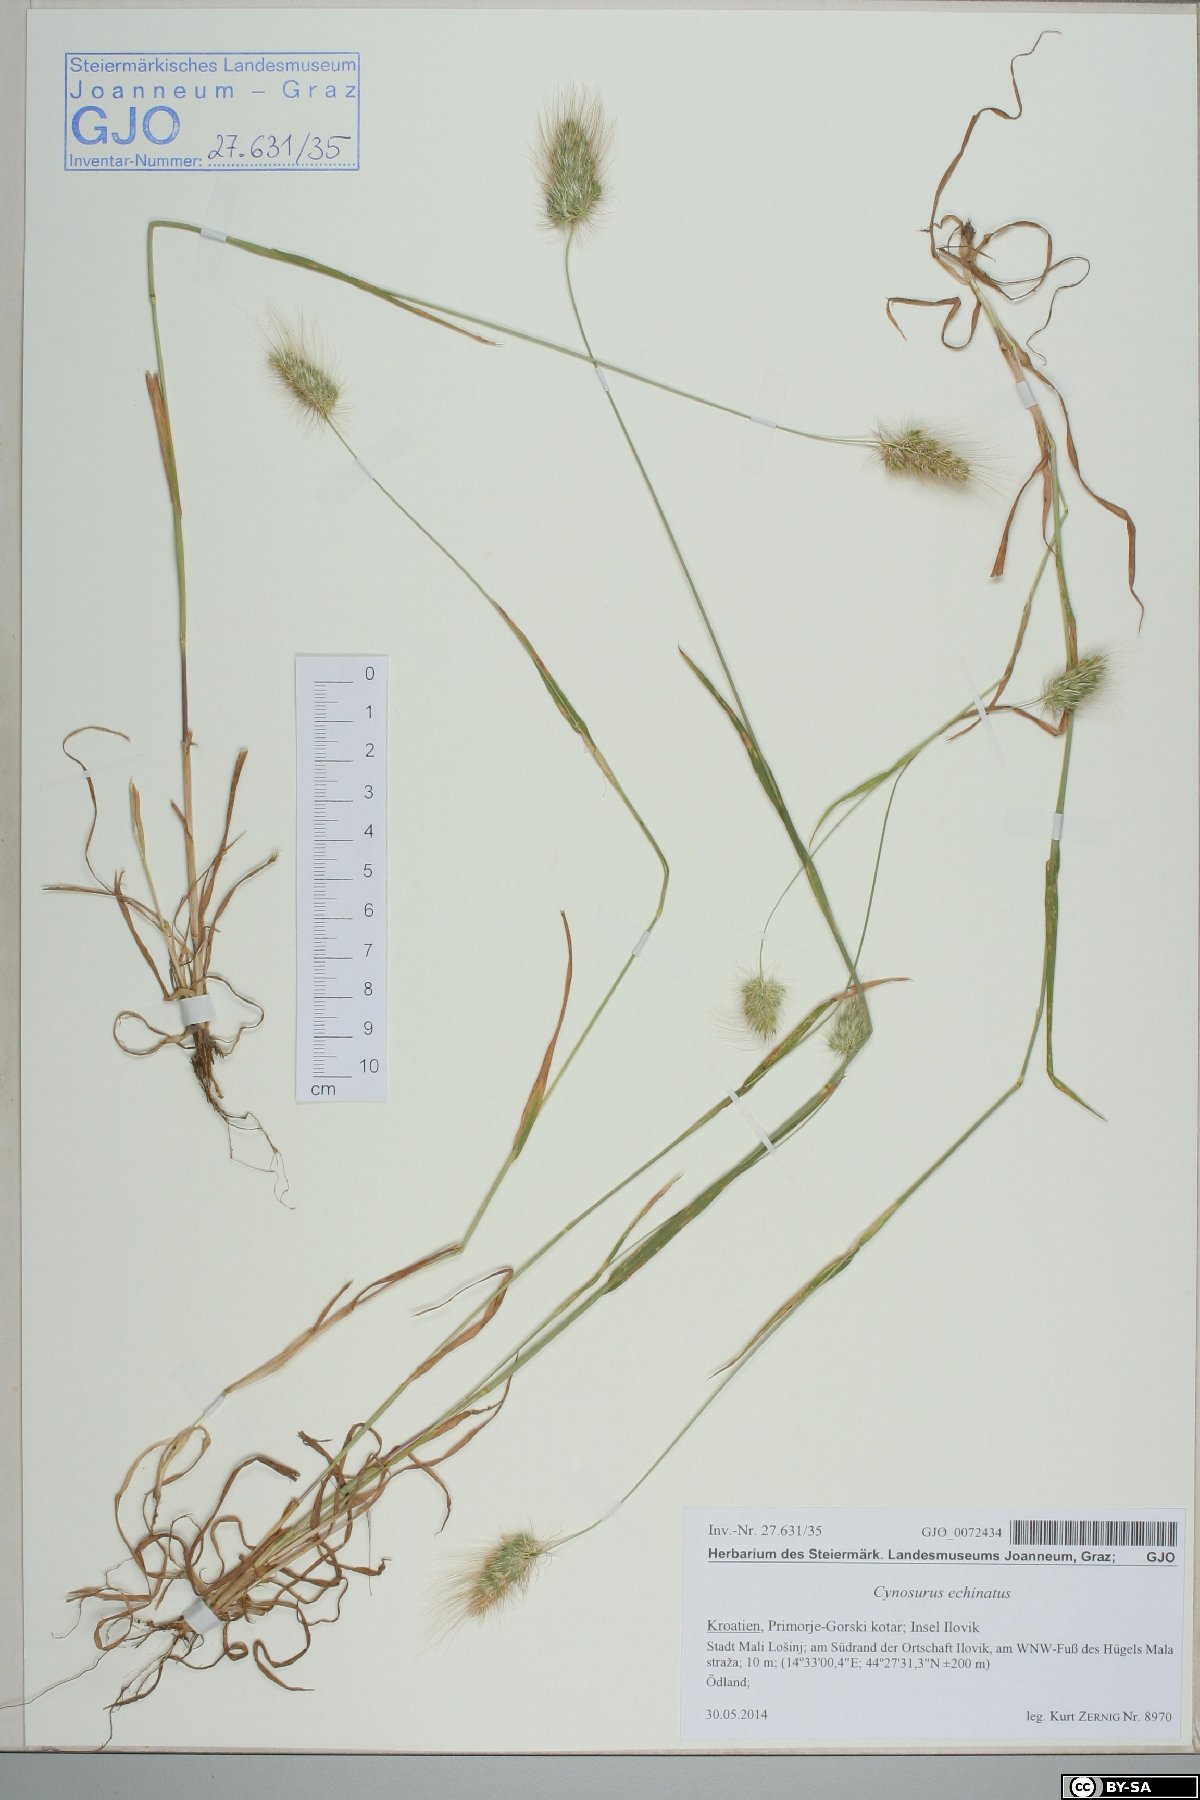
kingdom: Plantae
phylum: Tracheophyta
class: Liliopsida
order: Poales
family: Poaceae
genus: Cynosurus
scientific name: Cynosurus echinatus
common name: Rough dog's-tail
